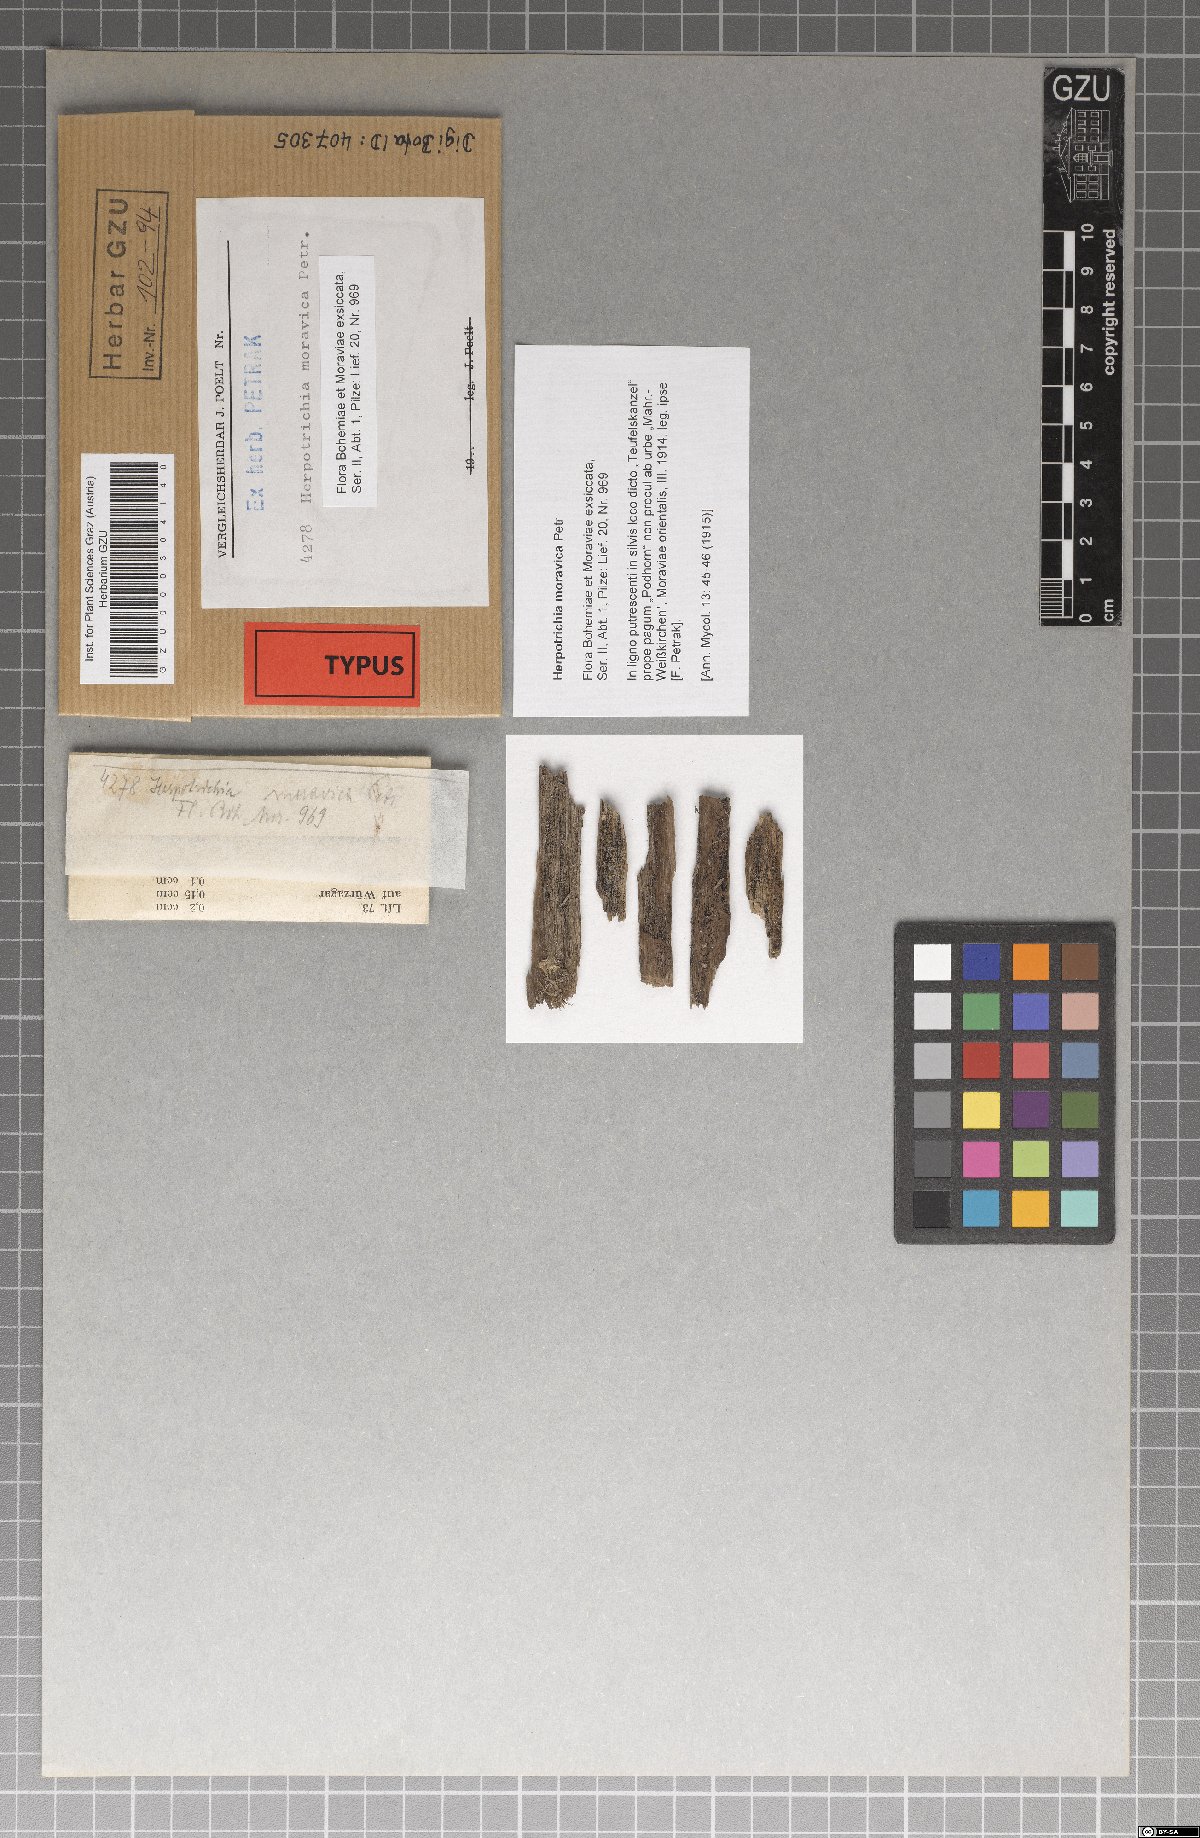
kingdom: Fungi
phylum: Ascomycota
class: Dothideomycetes
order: Pleosporales
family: Melanommataceae
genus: Herpotrichia
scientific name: Herpotrichia moravica
